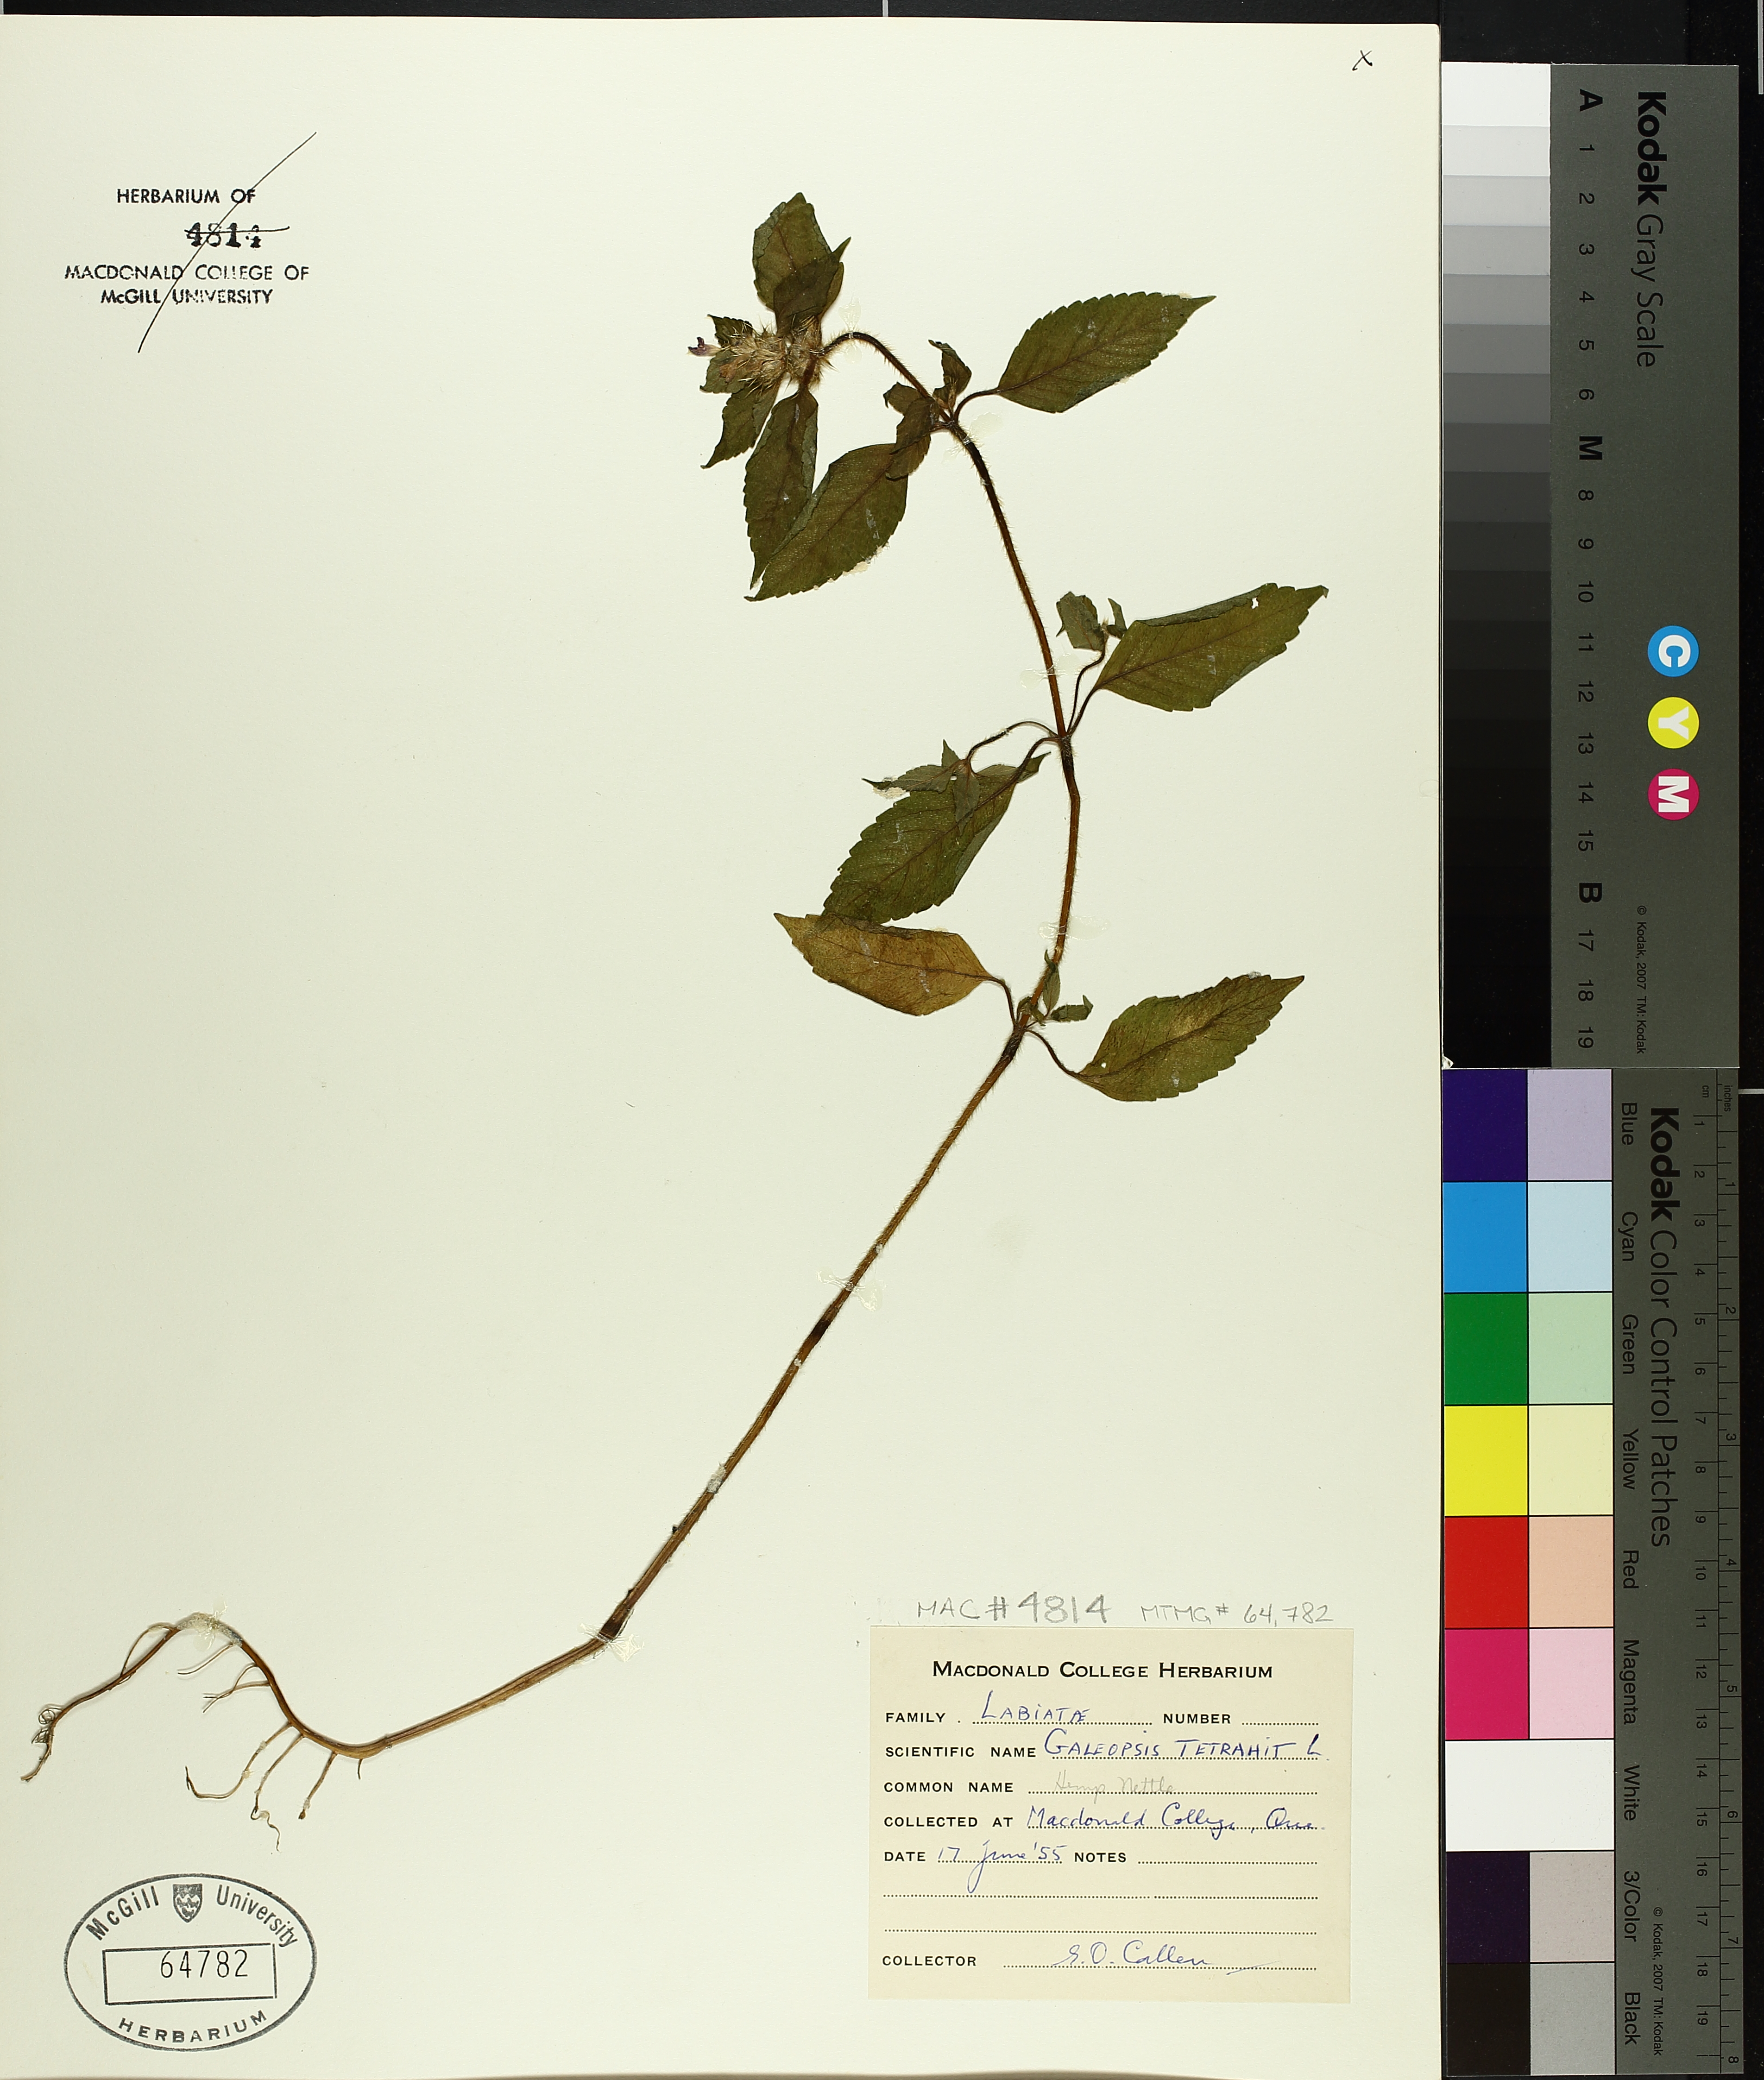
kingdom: Plantae
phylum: Tracheophyta
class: Magnoliopsida
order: Lamiales
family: Lamiaceae
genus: Galeopsis
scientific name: Galeopsis tetrahit
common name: Common hemp-nettle
